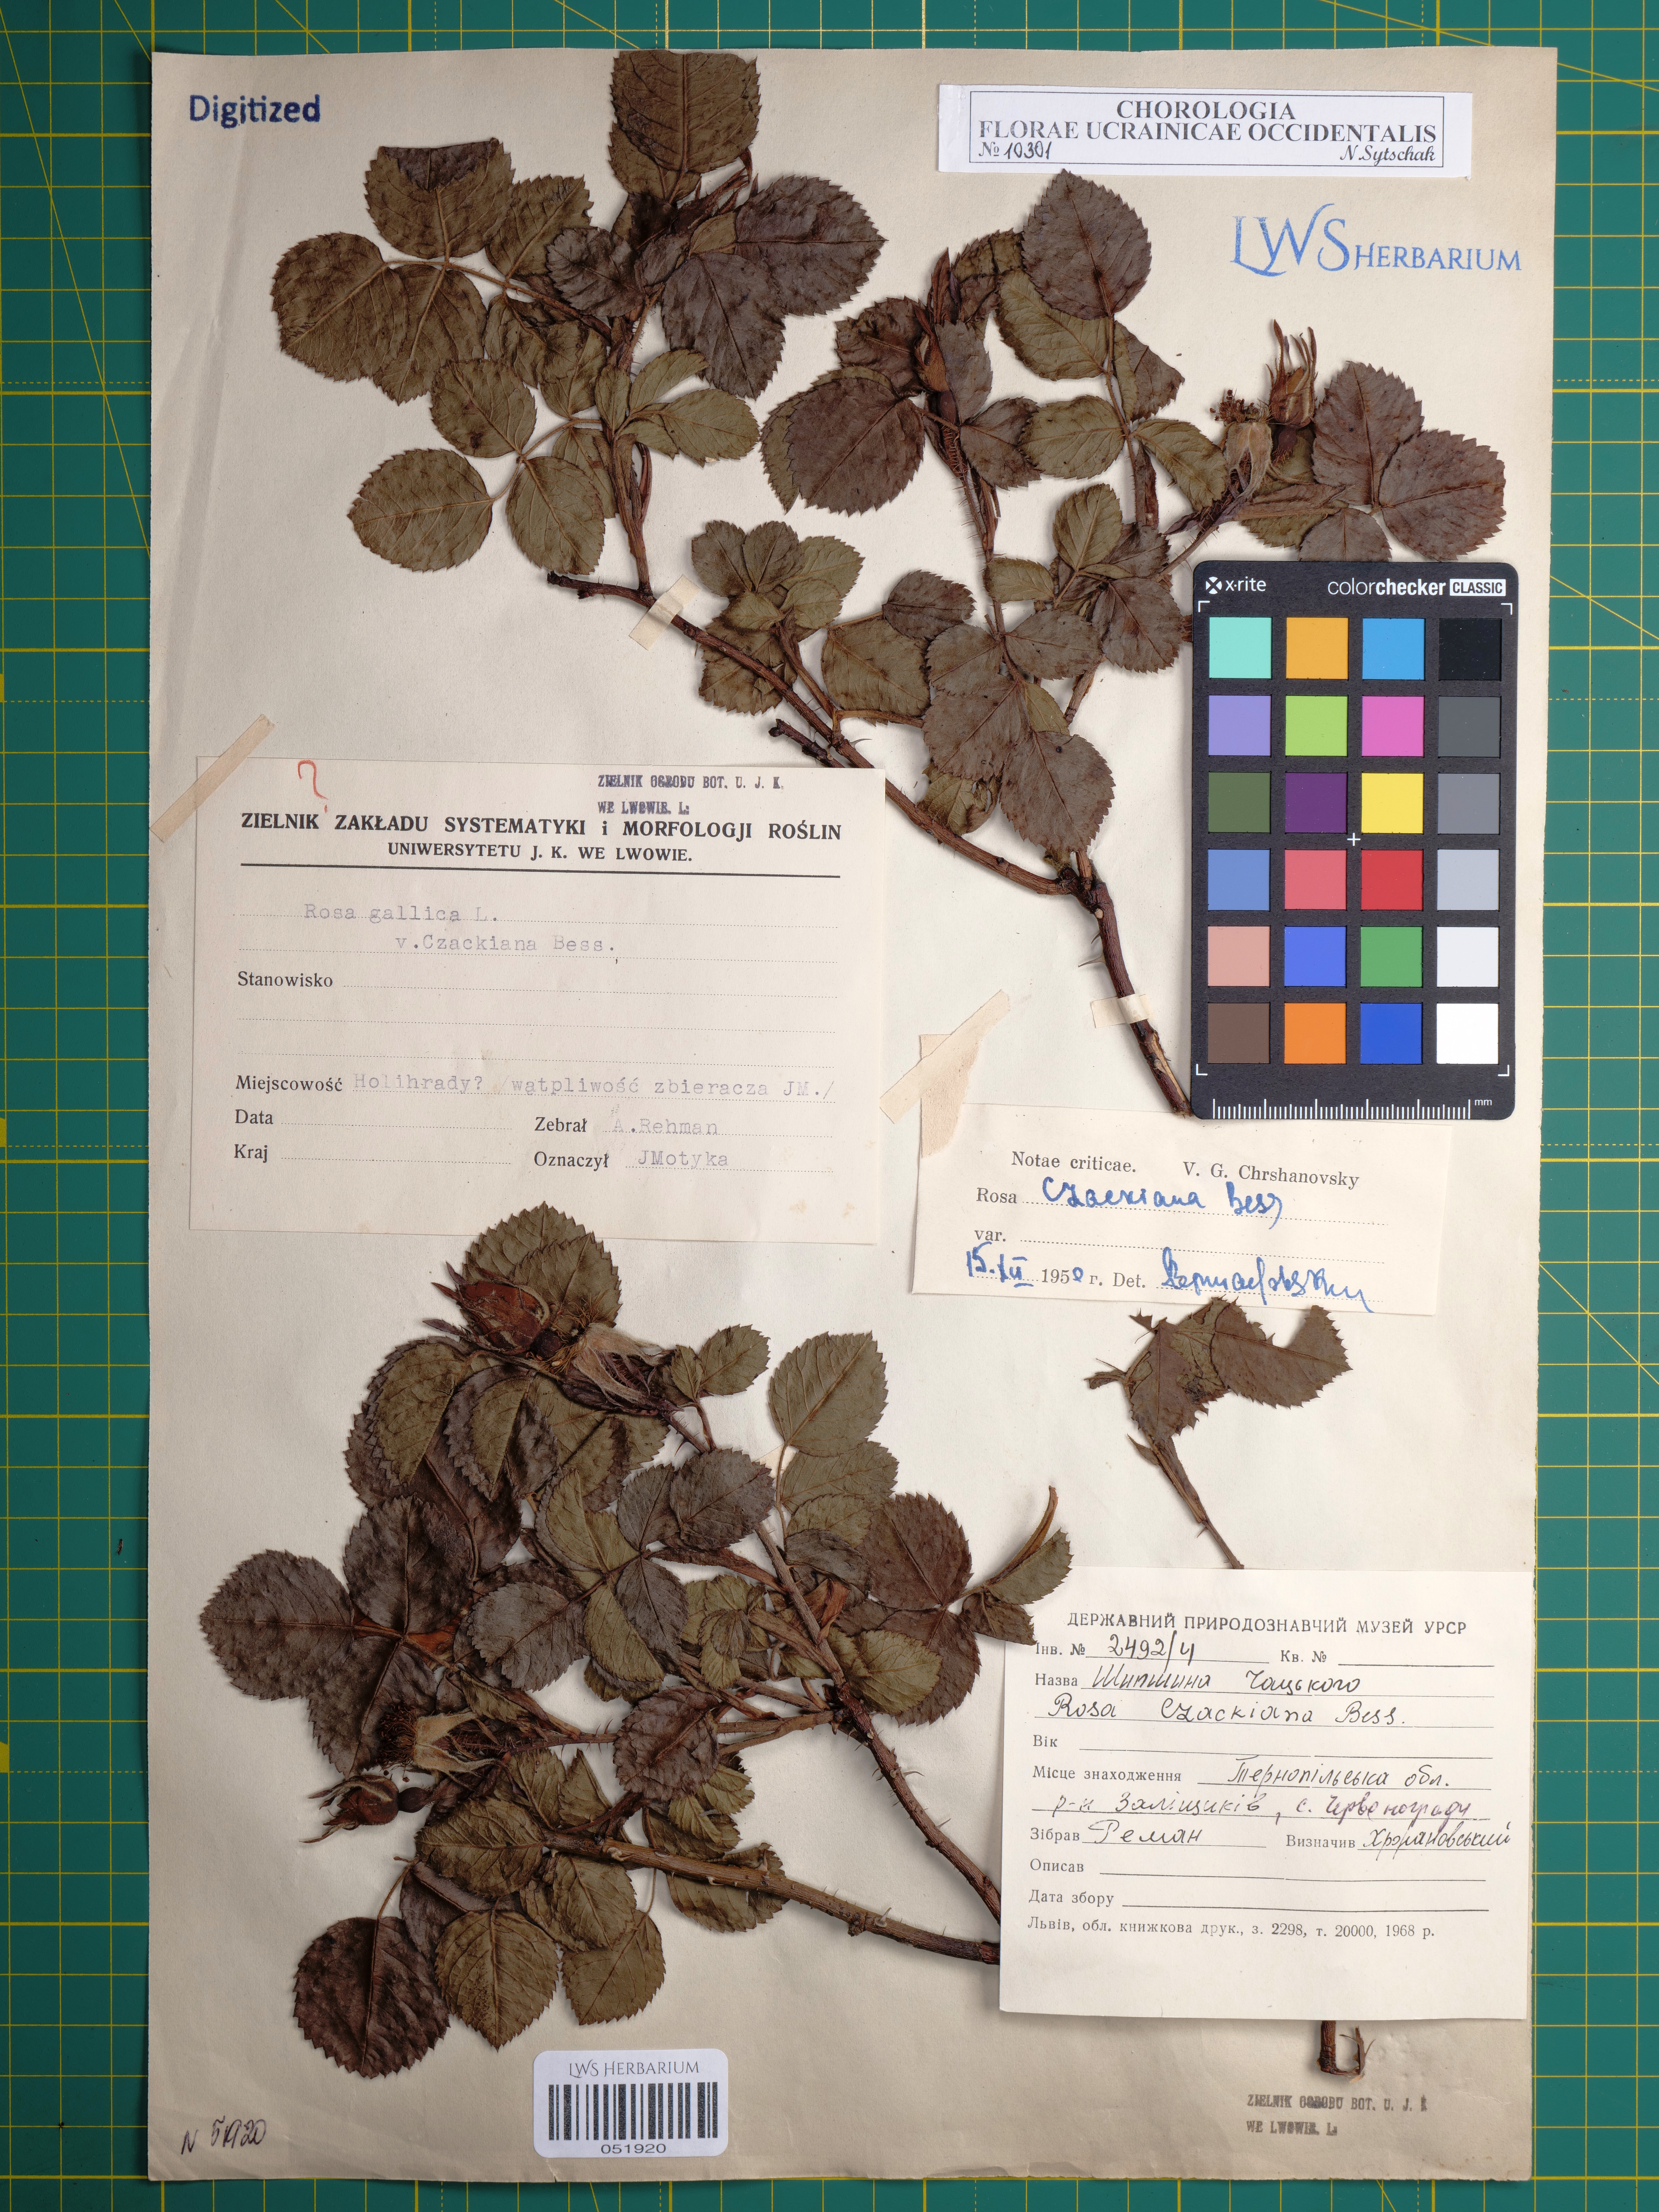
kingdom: Plantae
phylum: Tracheophyta
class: Magnoliopsida
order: Rosales
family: Rosaceae
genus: Rosa
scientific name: Rosa gallica
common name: French rose
